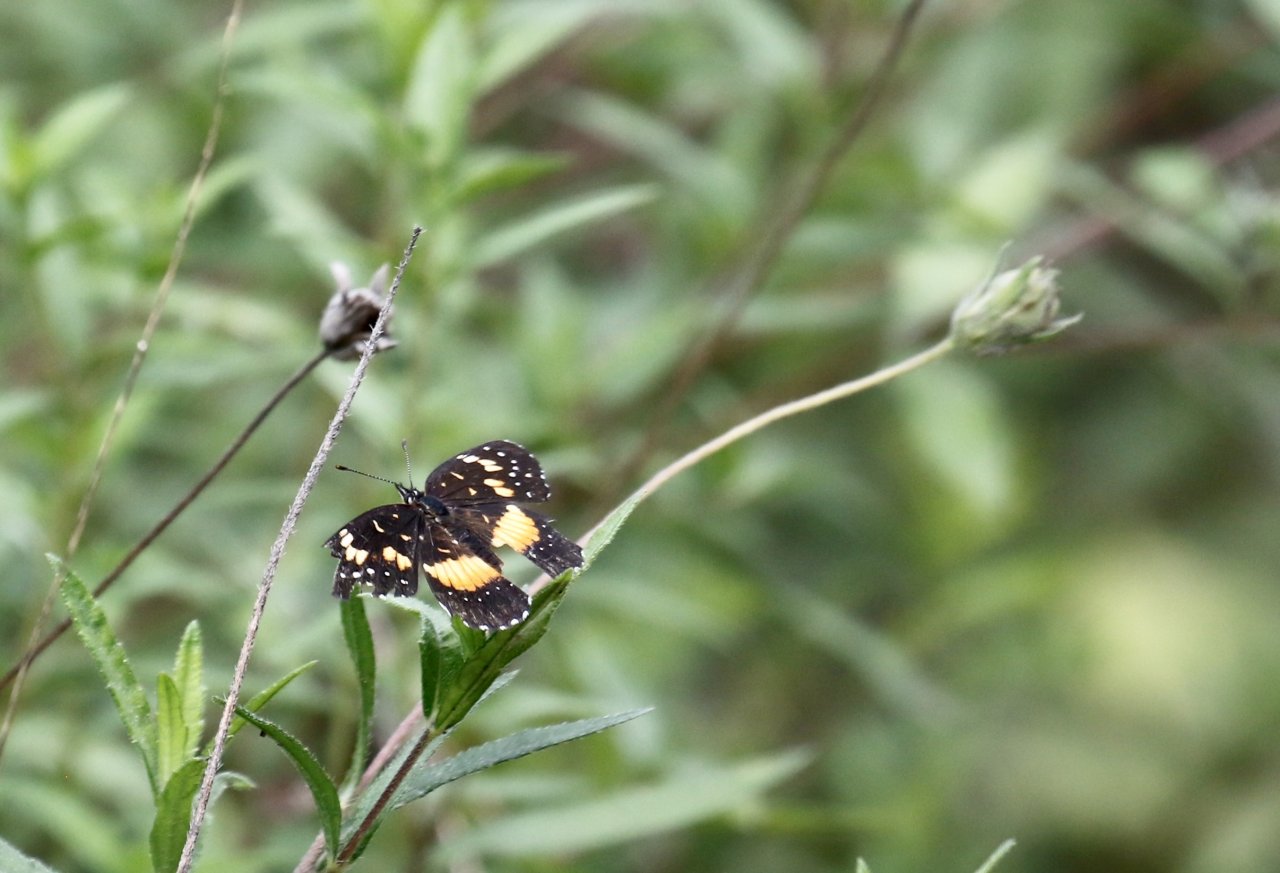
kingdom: Animalia
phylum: Arthropoda
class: Insecta
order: Lepidoptera
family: Nymphalidae
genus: Chlosyne
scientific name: Chlosyne lacinia
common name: Bordered Patch
